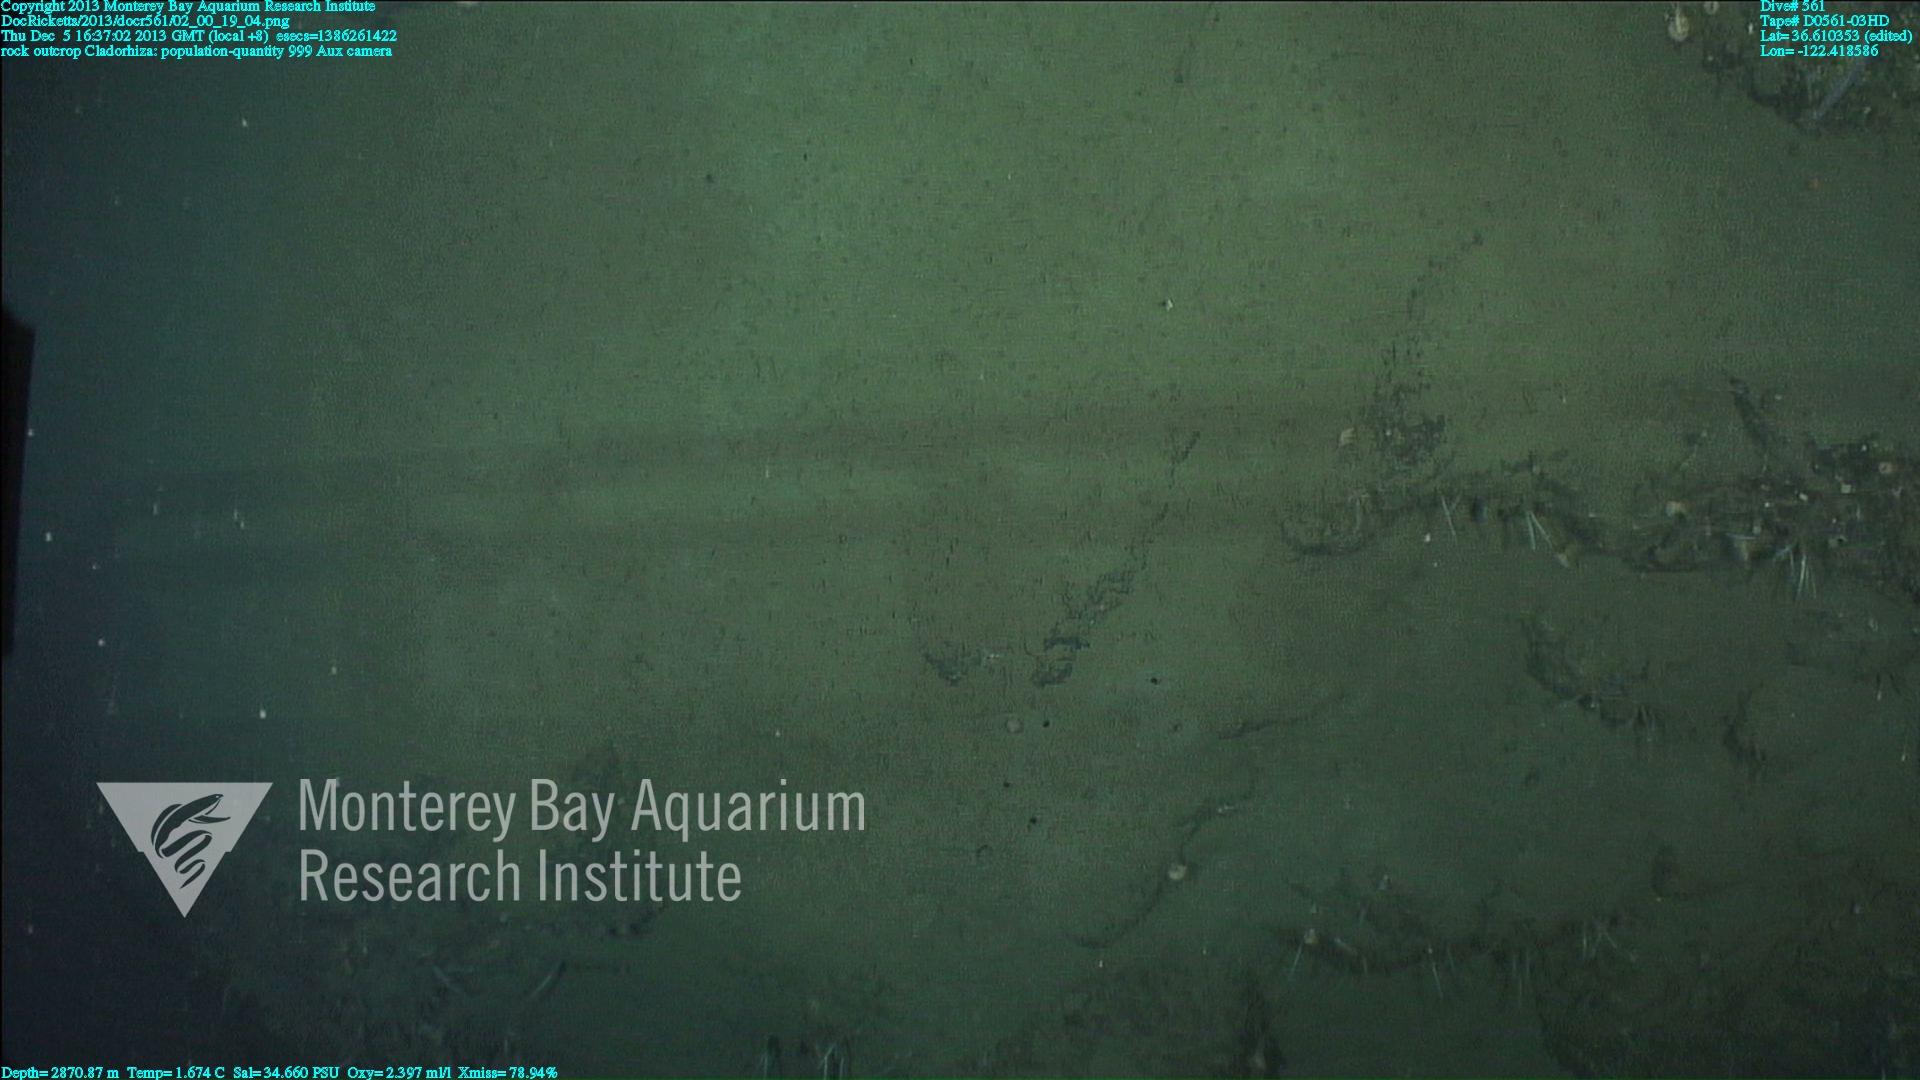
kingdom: Animalia
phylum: Porifera
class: Demospongiae
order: Poecilosclerida
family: Cladorhizidae
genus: Cladorhiza
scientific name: Cladorhiza
